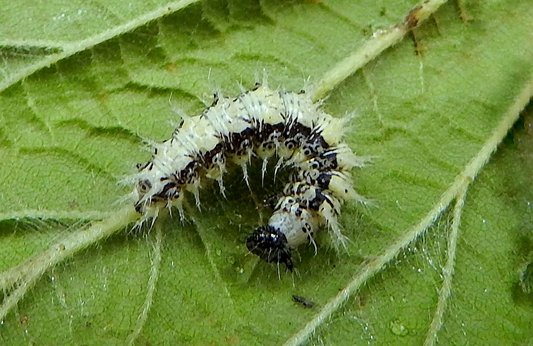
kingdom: Animalia
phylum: Arthropoda
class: Insecta
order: Lepidoptera
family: Nymphalidae
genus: Polygonia
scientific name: Polygonia satyrus
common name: Satyr Comma
